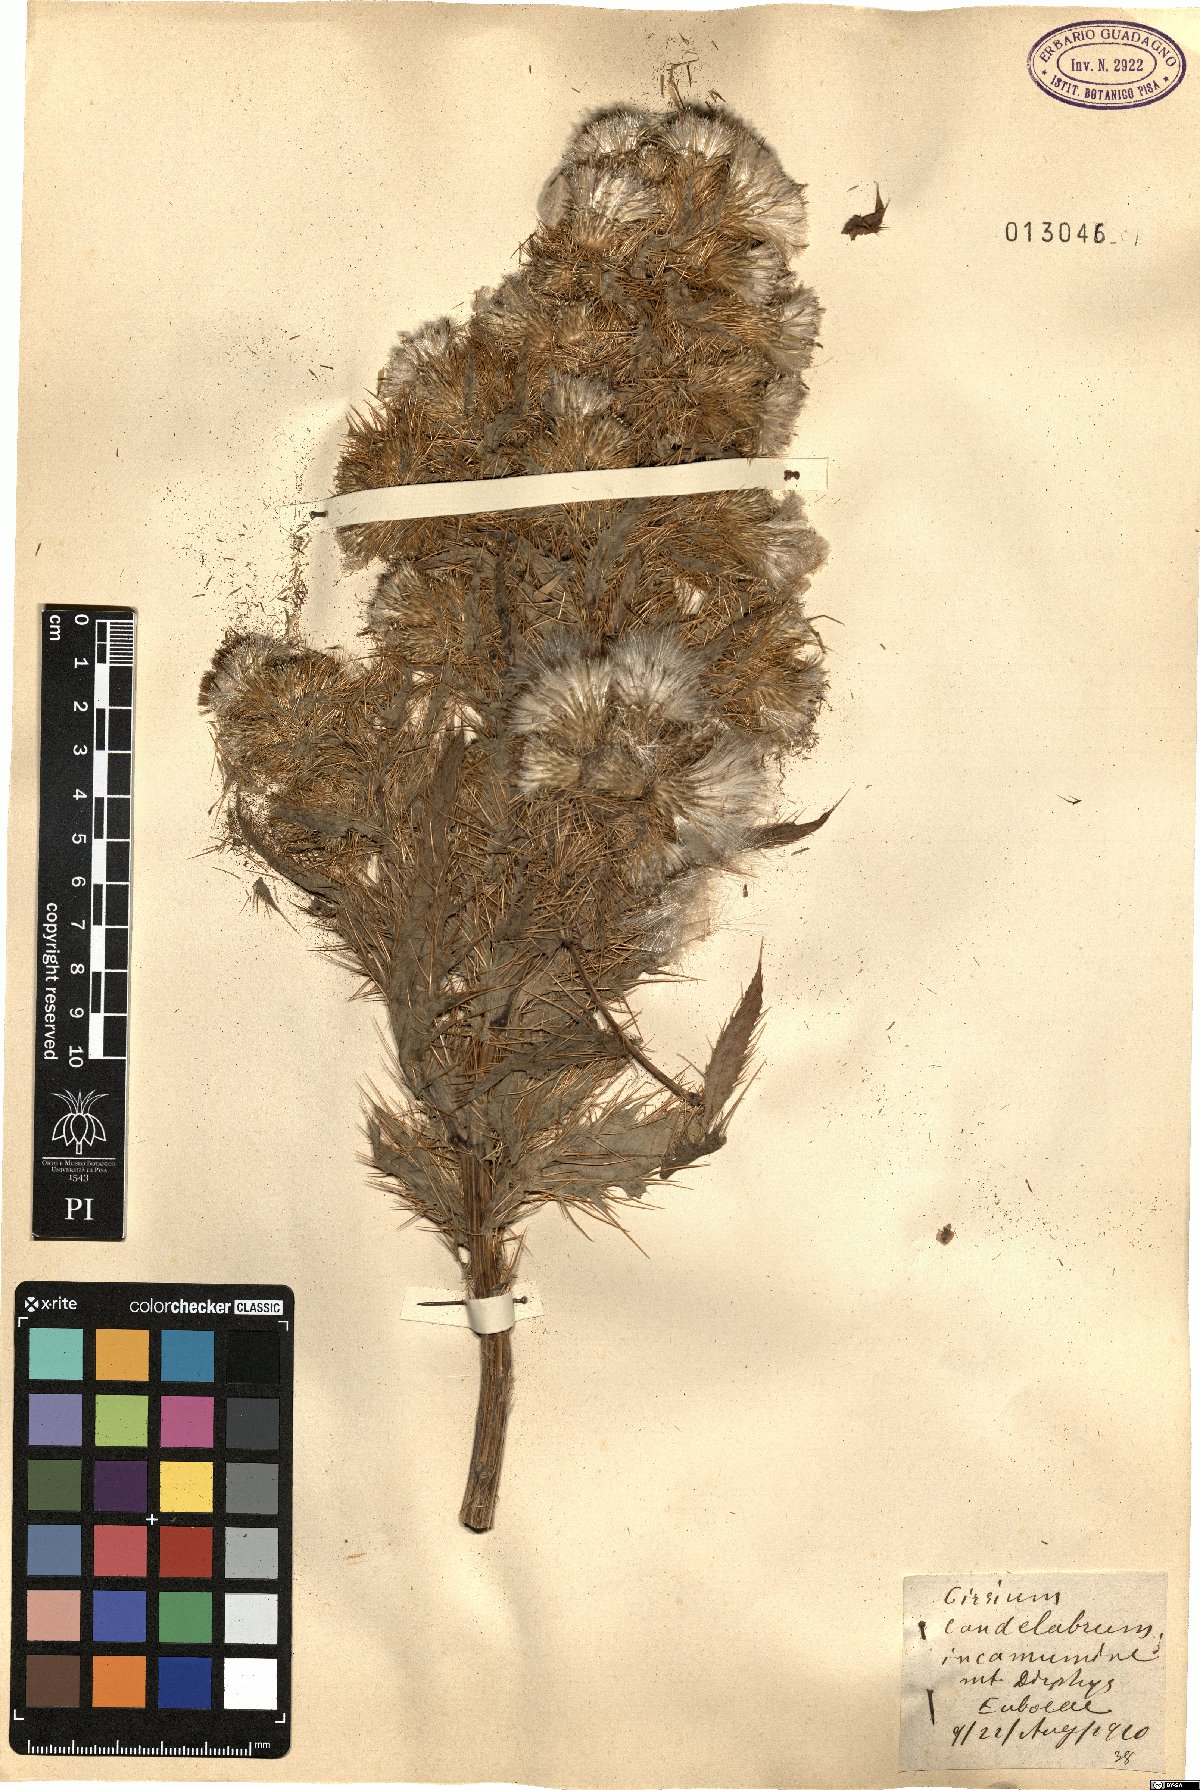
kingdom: Plantae
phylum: Tracheophyta
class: Magnoliopsida
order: Asterales
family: Asteraceae
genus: Cirsium
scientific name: Cirsium candelabrum
